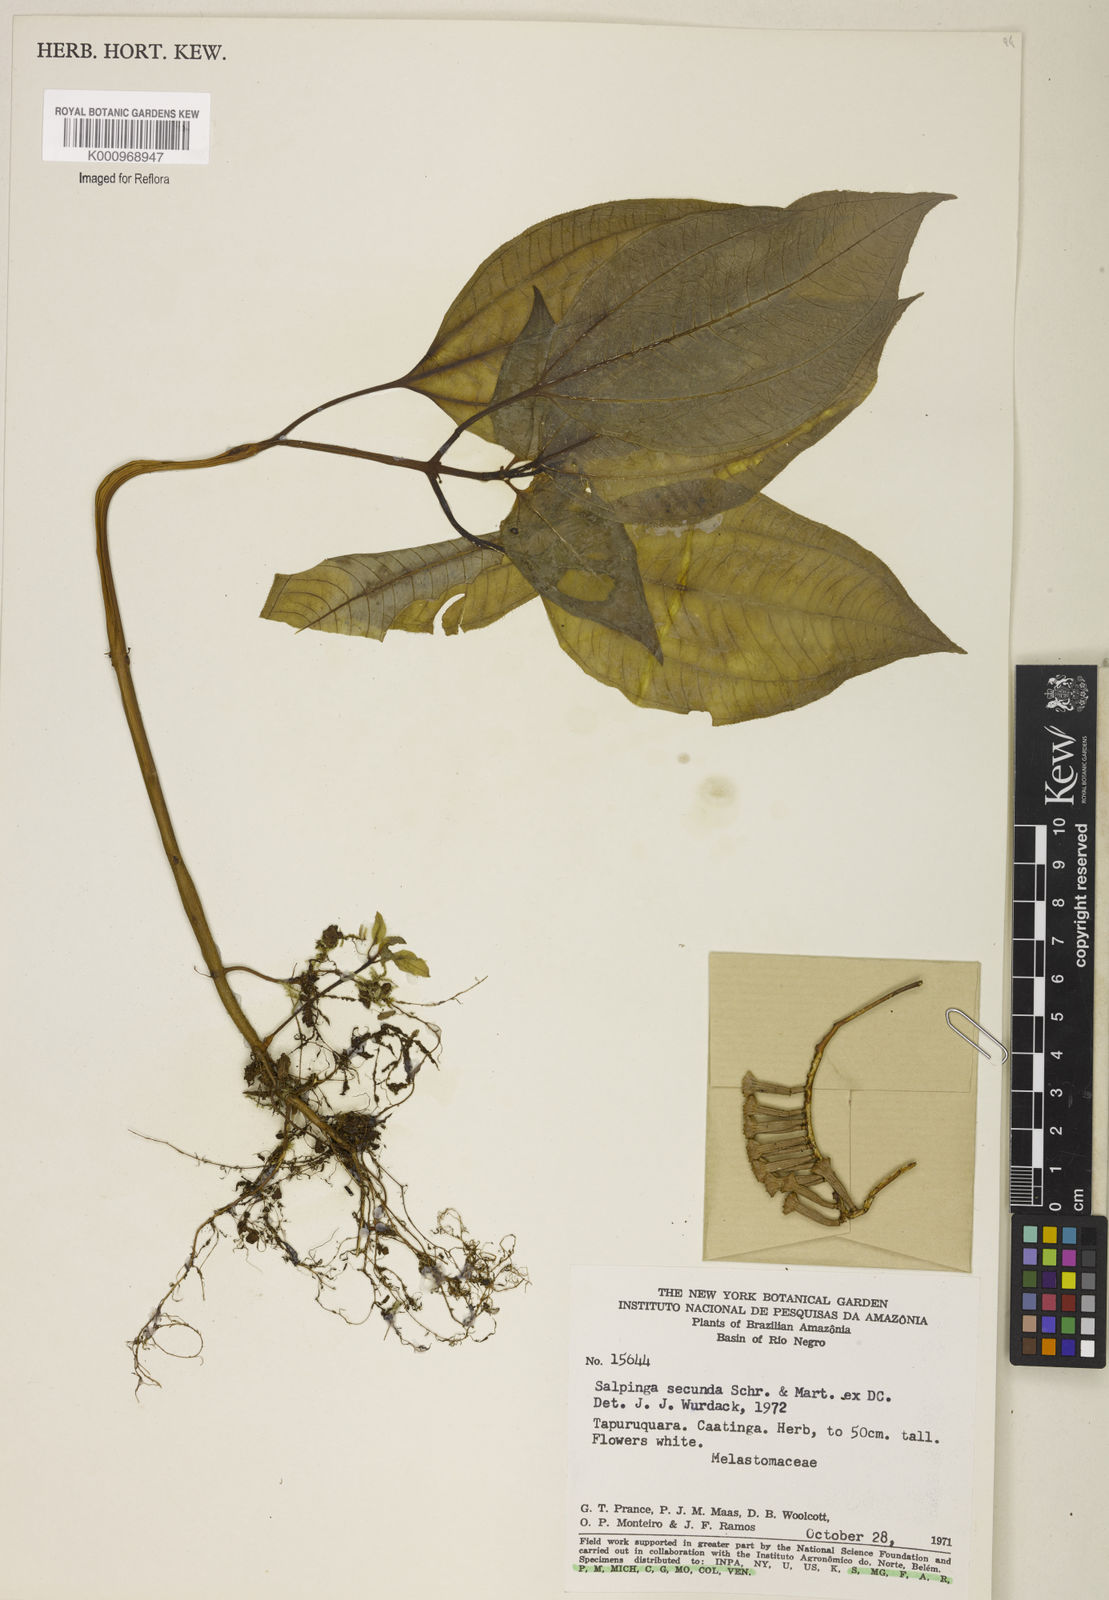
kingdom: Plantae
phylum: Tracheophyta
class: Magnoliopsida
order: Myrtales
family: Melastomataceae
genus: Salpinga
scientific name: Salpinga secunda
